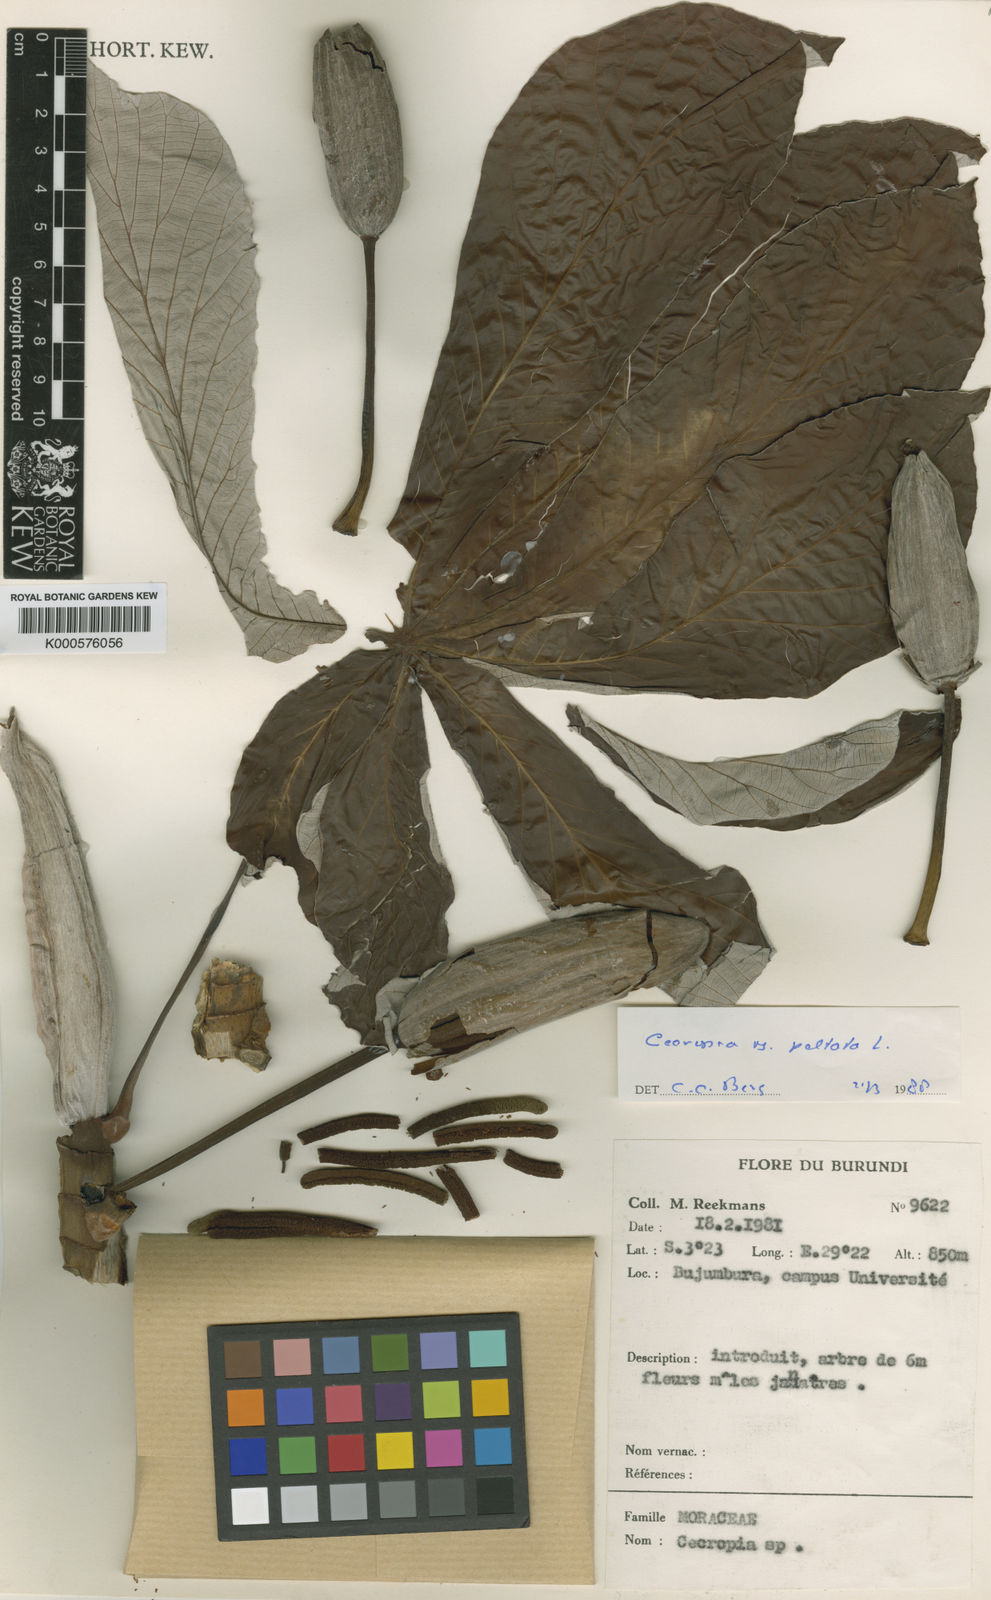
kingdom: Plantae
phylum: Tracheophyta
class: Magnoliopsida
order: Rosales
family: Urticaceae
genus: Cecropia
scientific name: Cecropia
